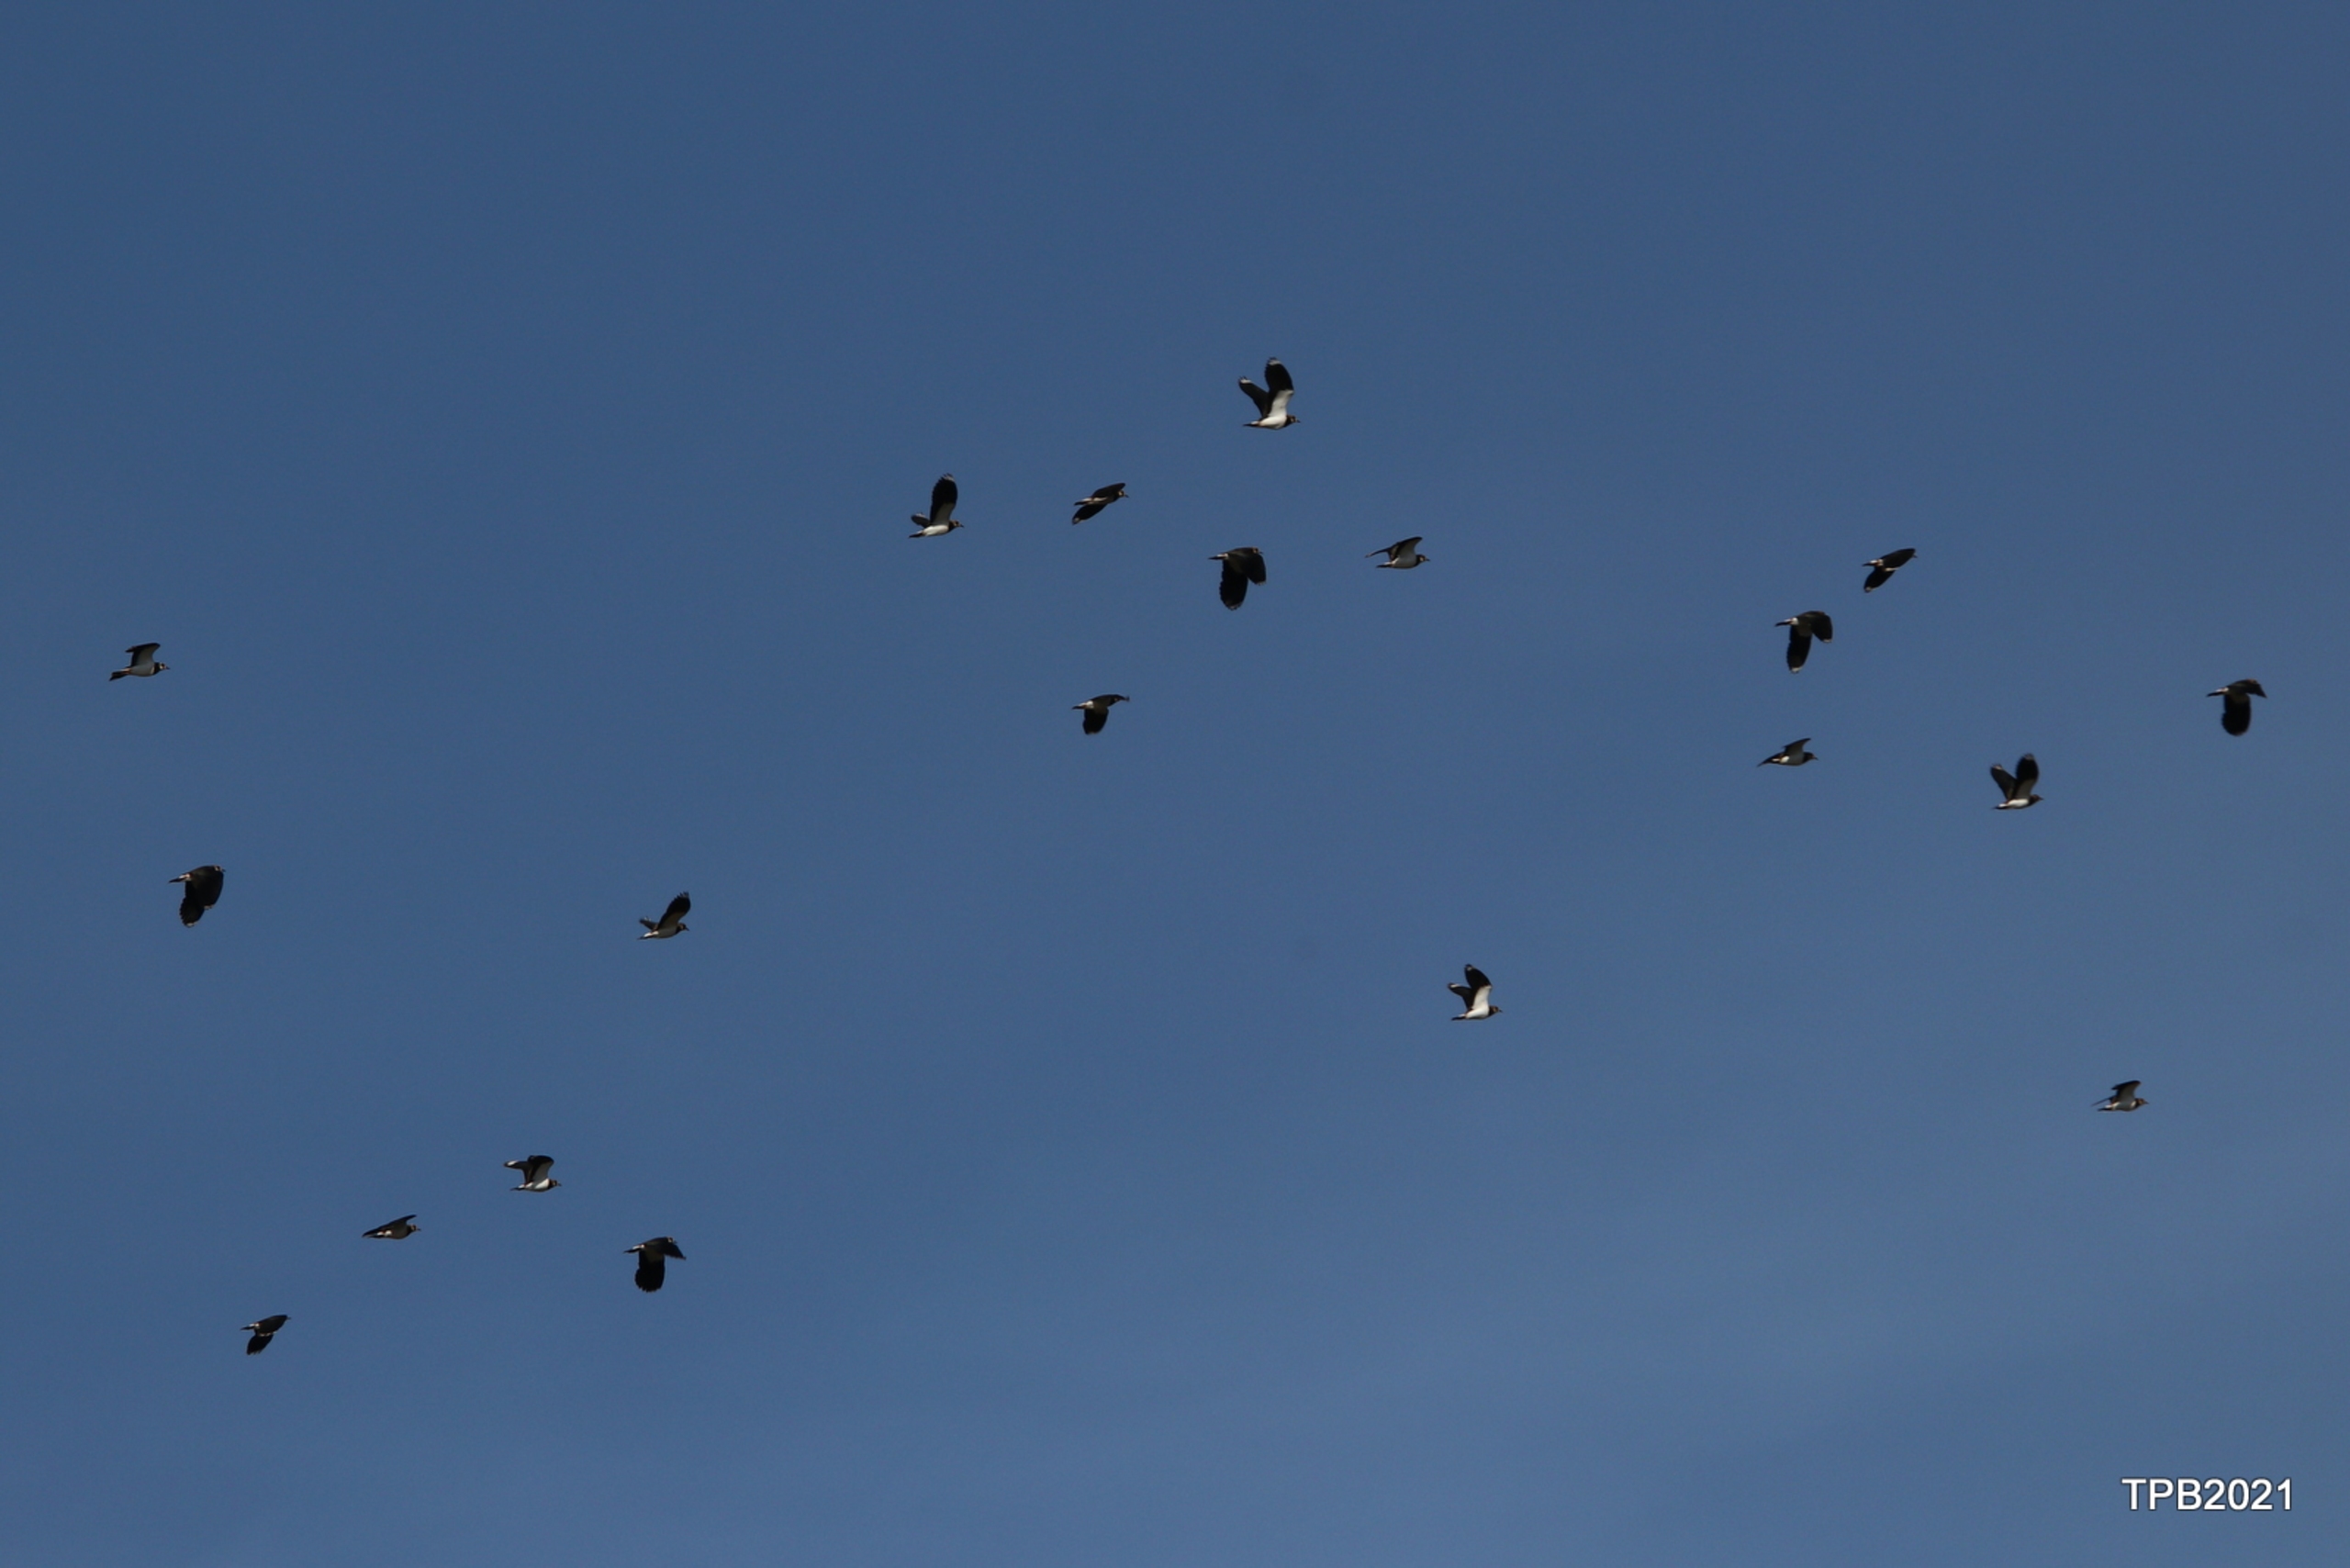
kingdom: Animalia
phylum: Chordata
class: Aves
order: Charadriiformes
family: Charadriidae
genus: Vanellus
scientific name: Vanellus vanellus
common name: Vibe
